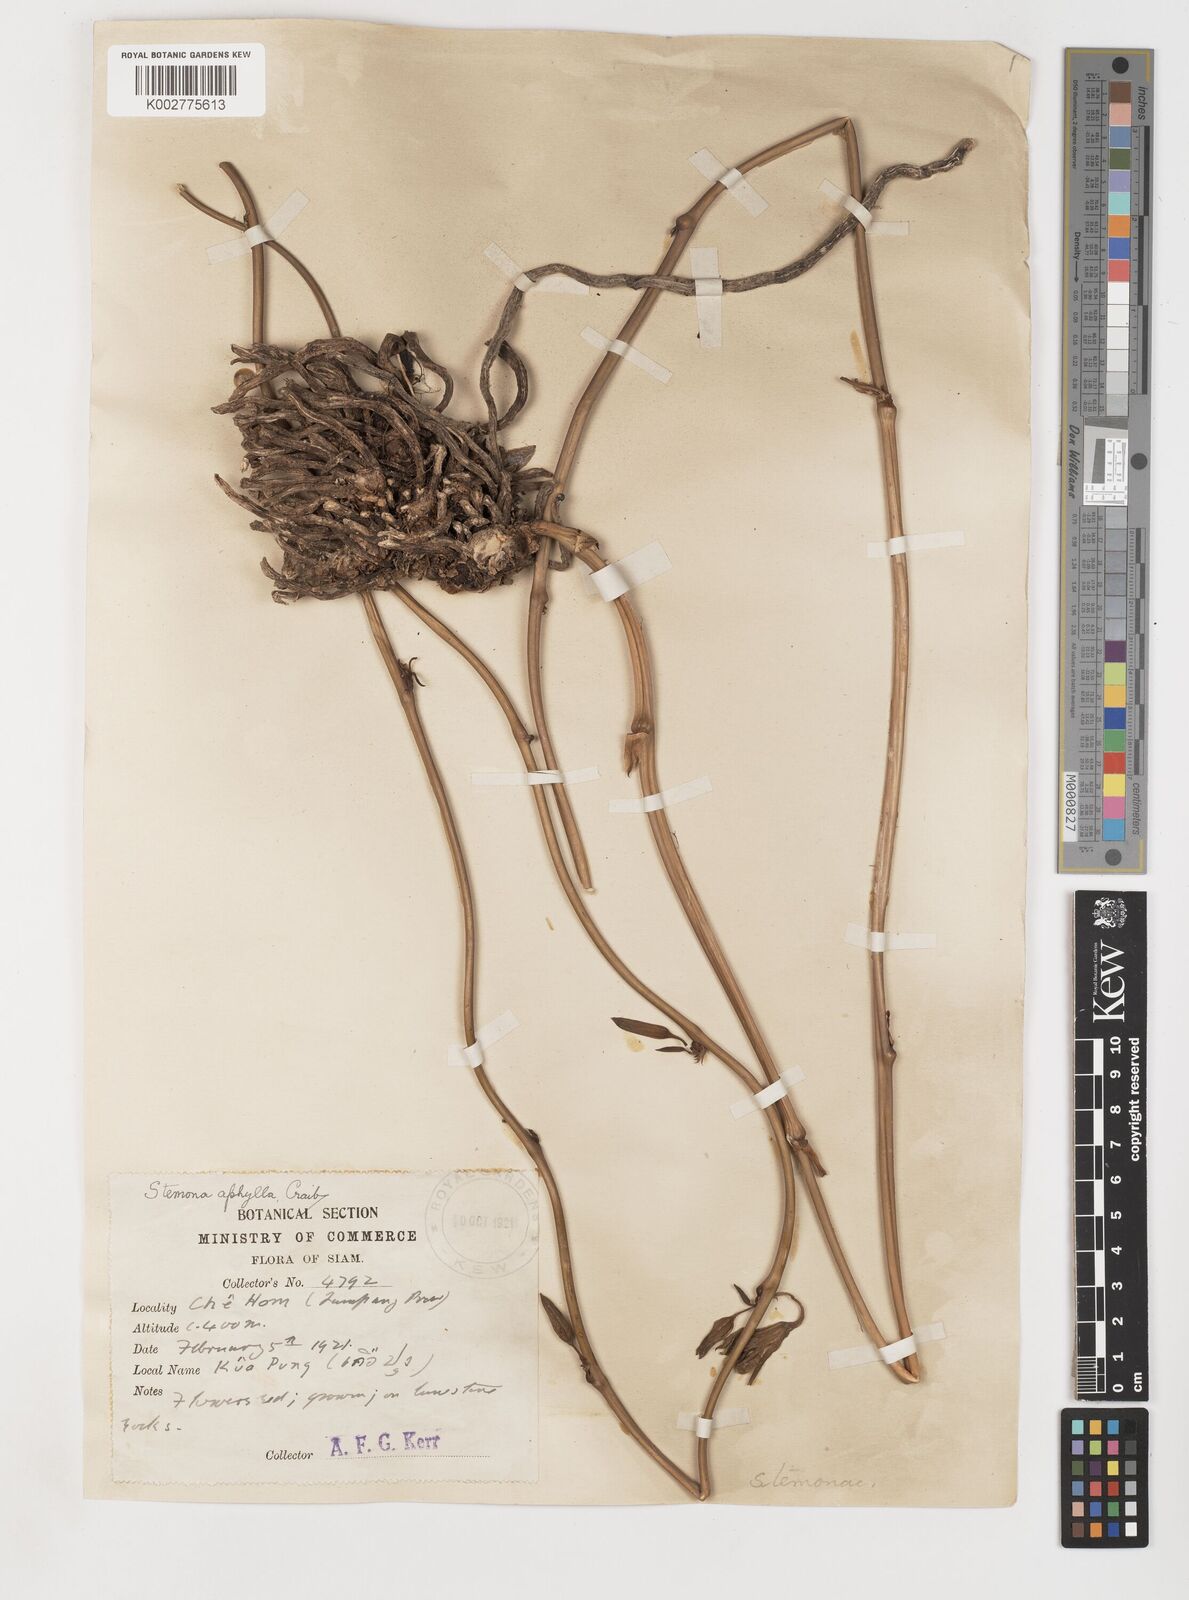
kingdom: Plantae
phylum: Tracheophyta
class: Liliopsida
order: Pandanales
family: Stemonaceae
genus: Stemona
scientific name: Stemona aphylla
